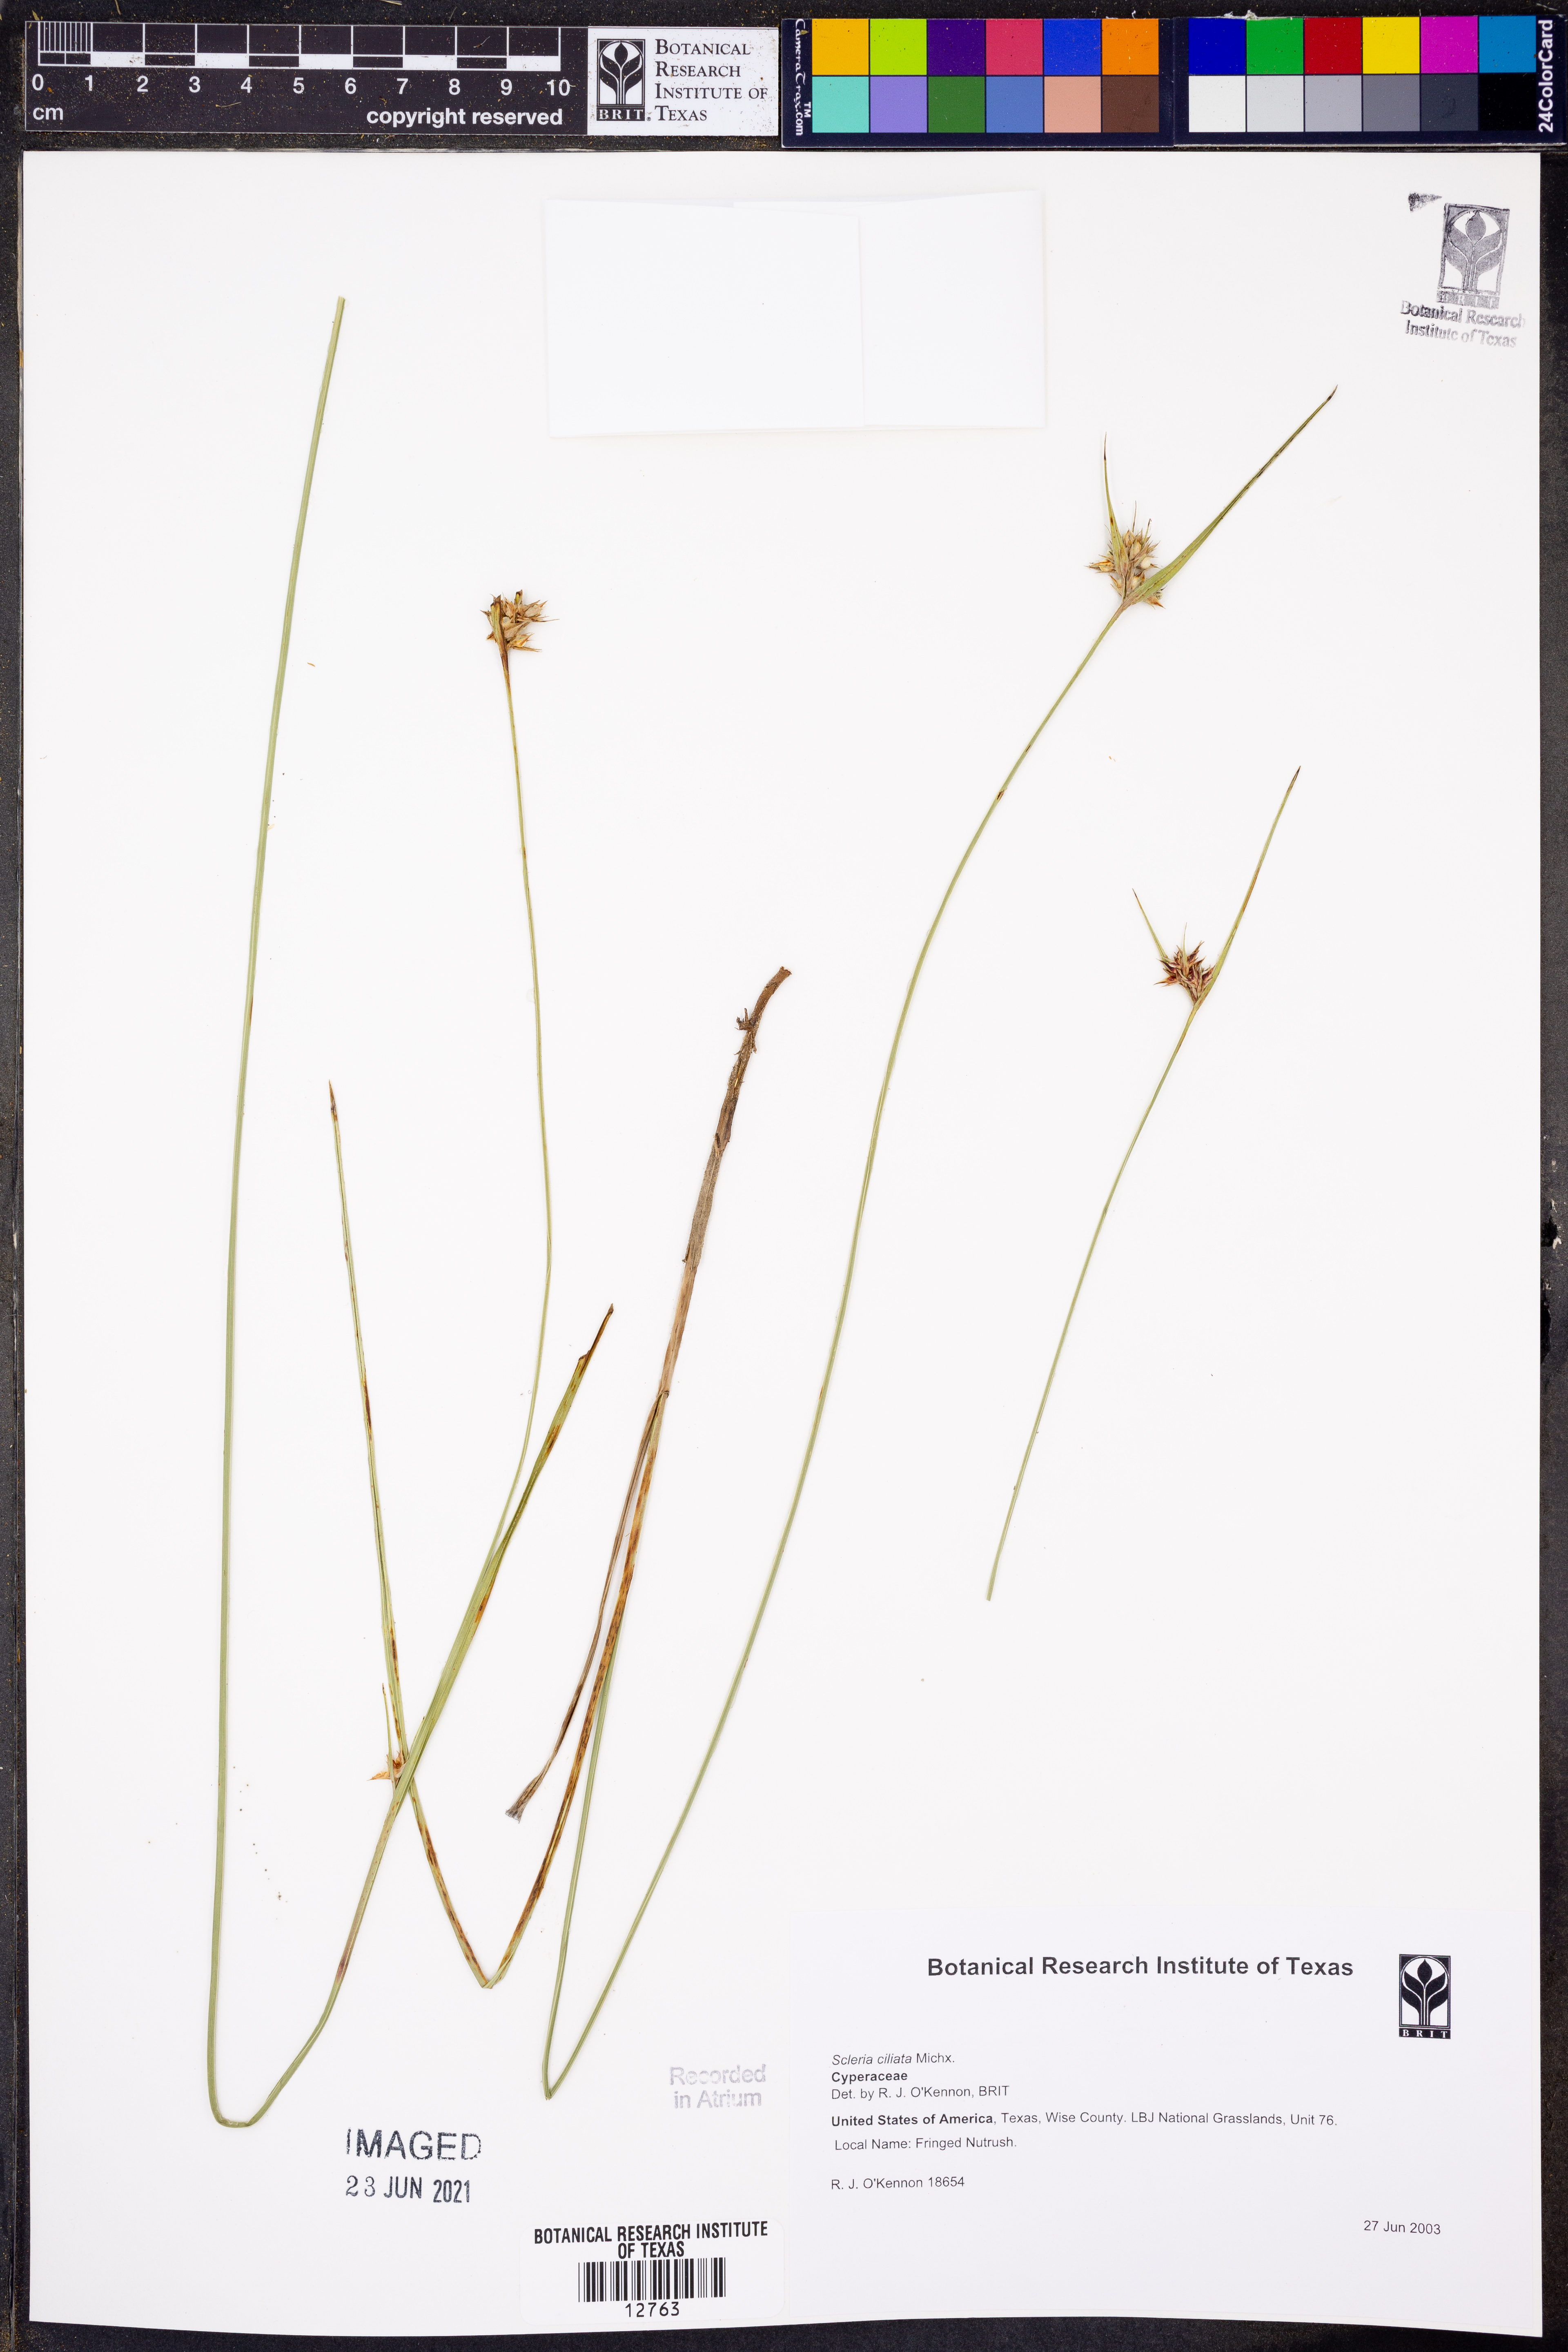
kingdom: Plantae
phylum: Tracheophyta
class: Liliopsida
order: Poales
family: Cyperaceae
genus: Scleria
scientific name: Scleria ciliata
